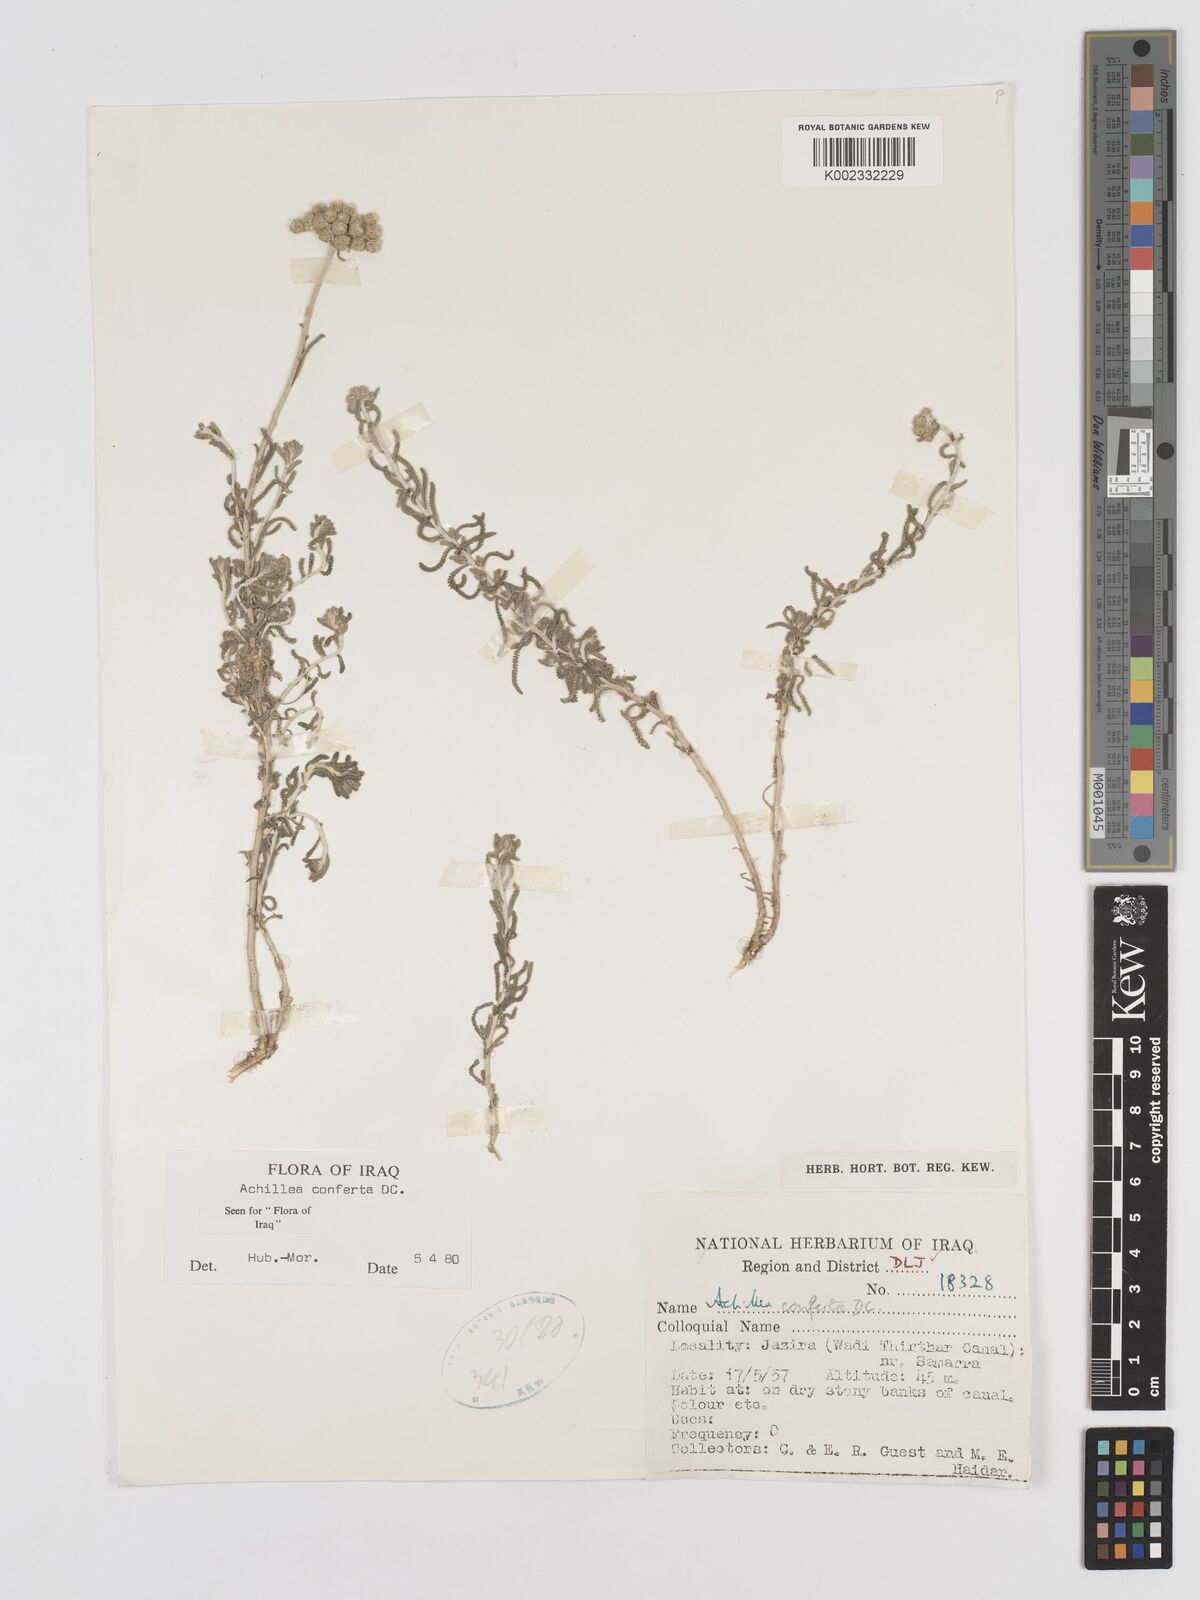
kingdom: Plantae
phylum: Tracheophyta
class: Magnoliopsida
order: Asterales
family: Asteraceae
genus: Achillea
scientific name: Achillea conferta
